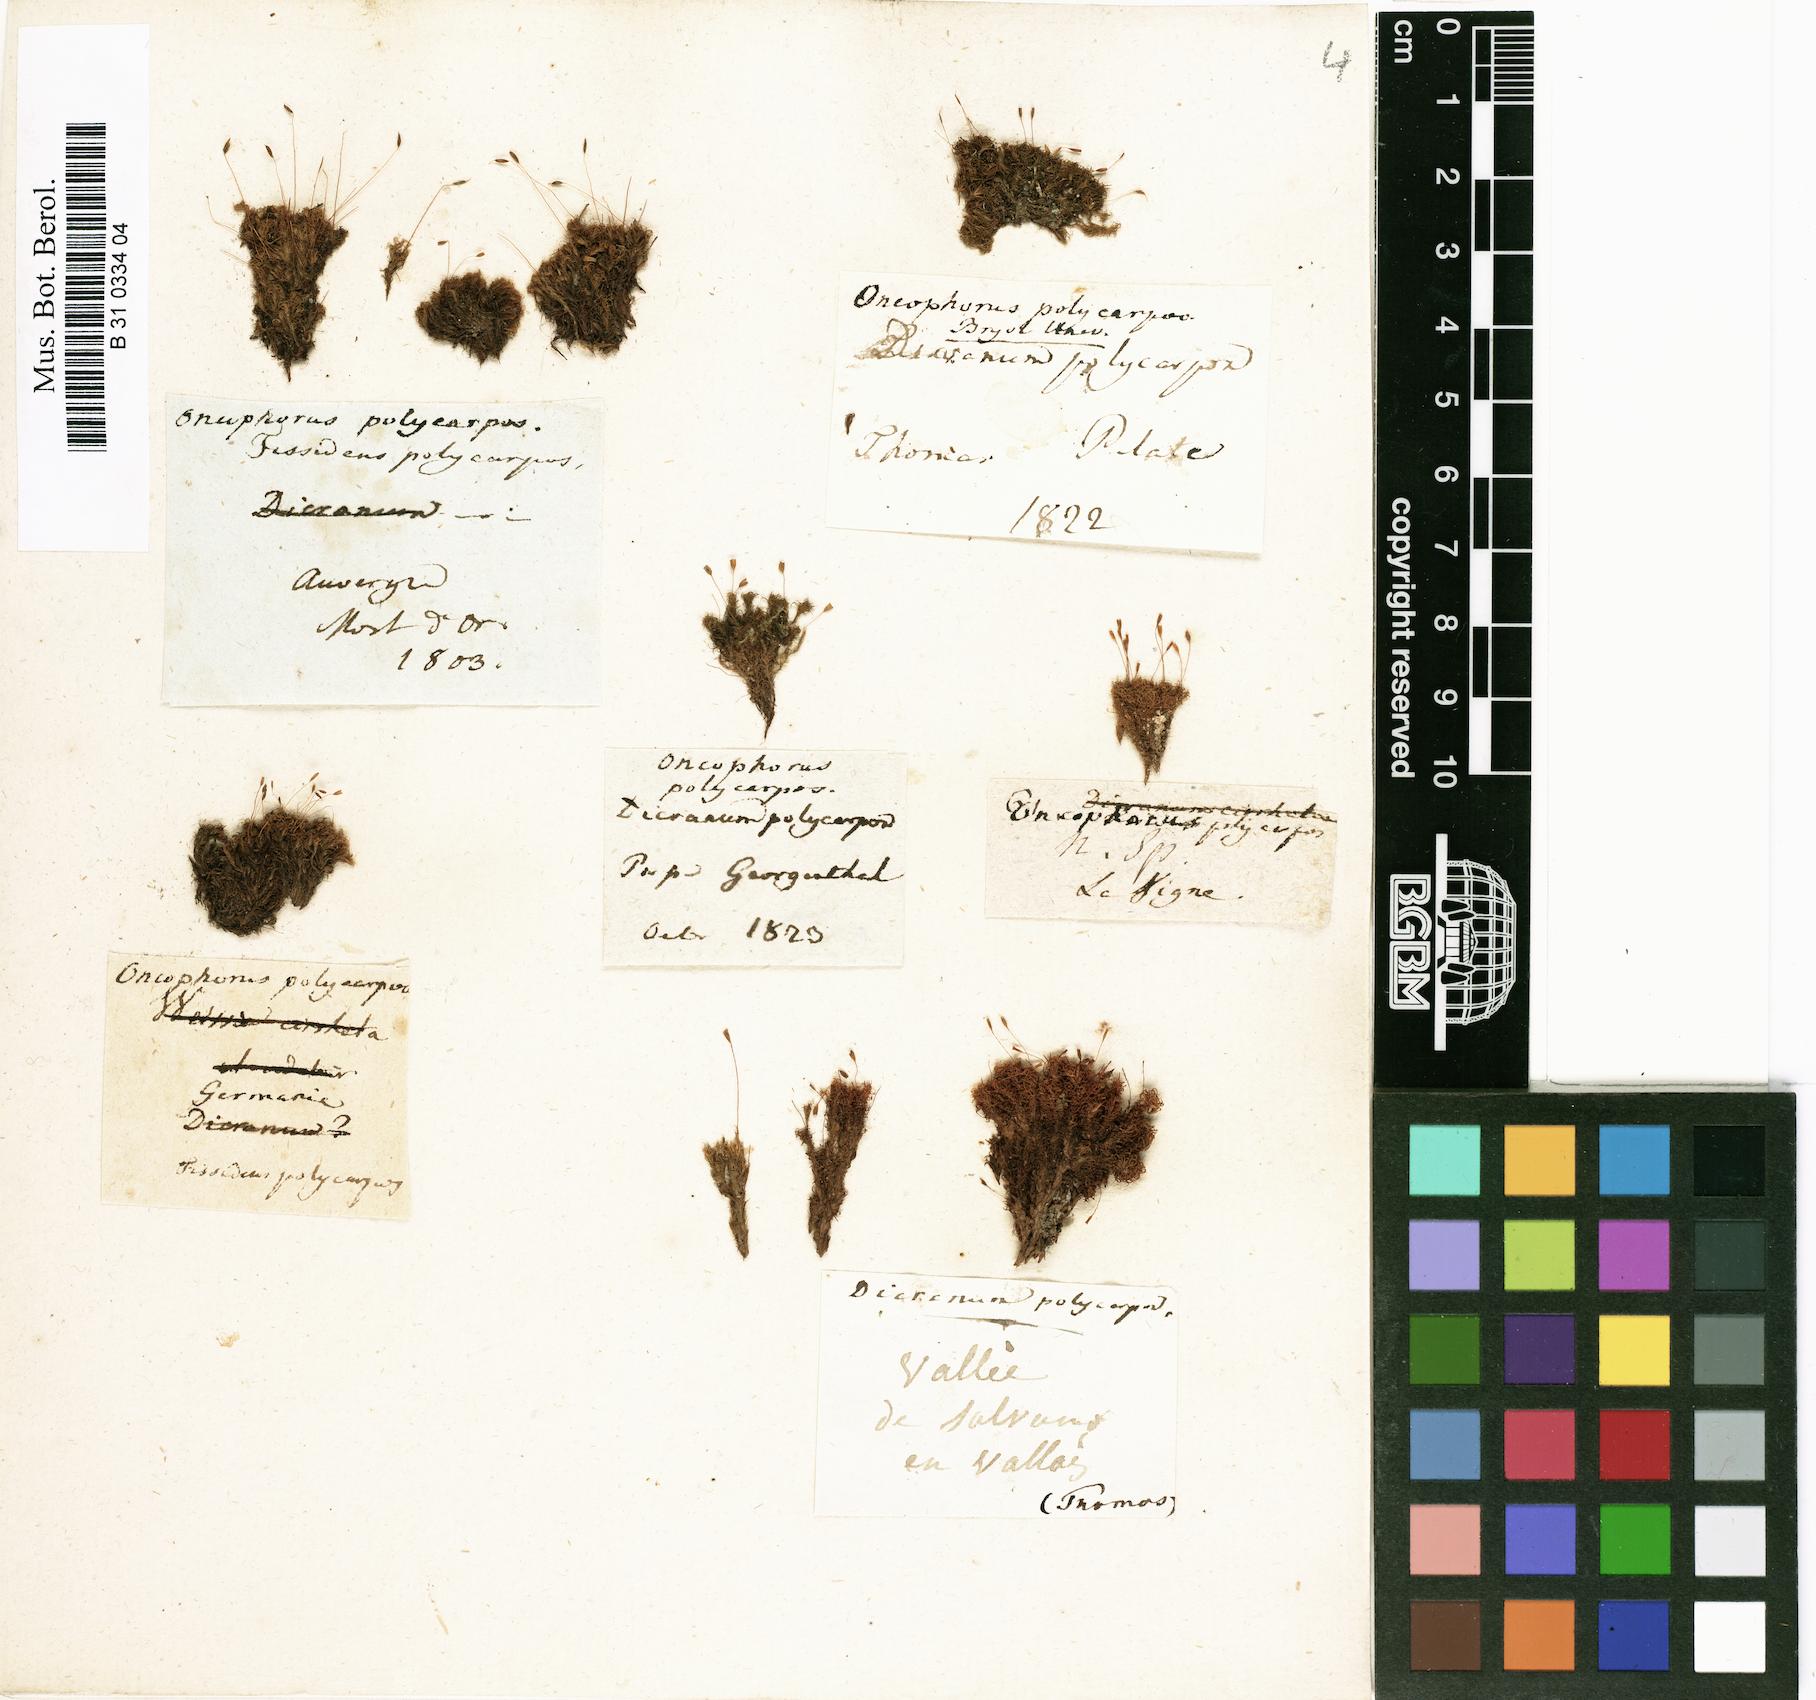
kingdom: Plantae
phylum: Bryophyta
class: Bryopsida
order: Dicranales
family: Rhabdoweisiaceae
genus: Cynodontium
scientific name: Cynodontium polycarpon
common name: Many-fruited dogtooth moss
